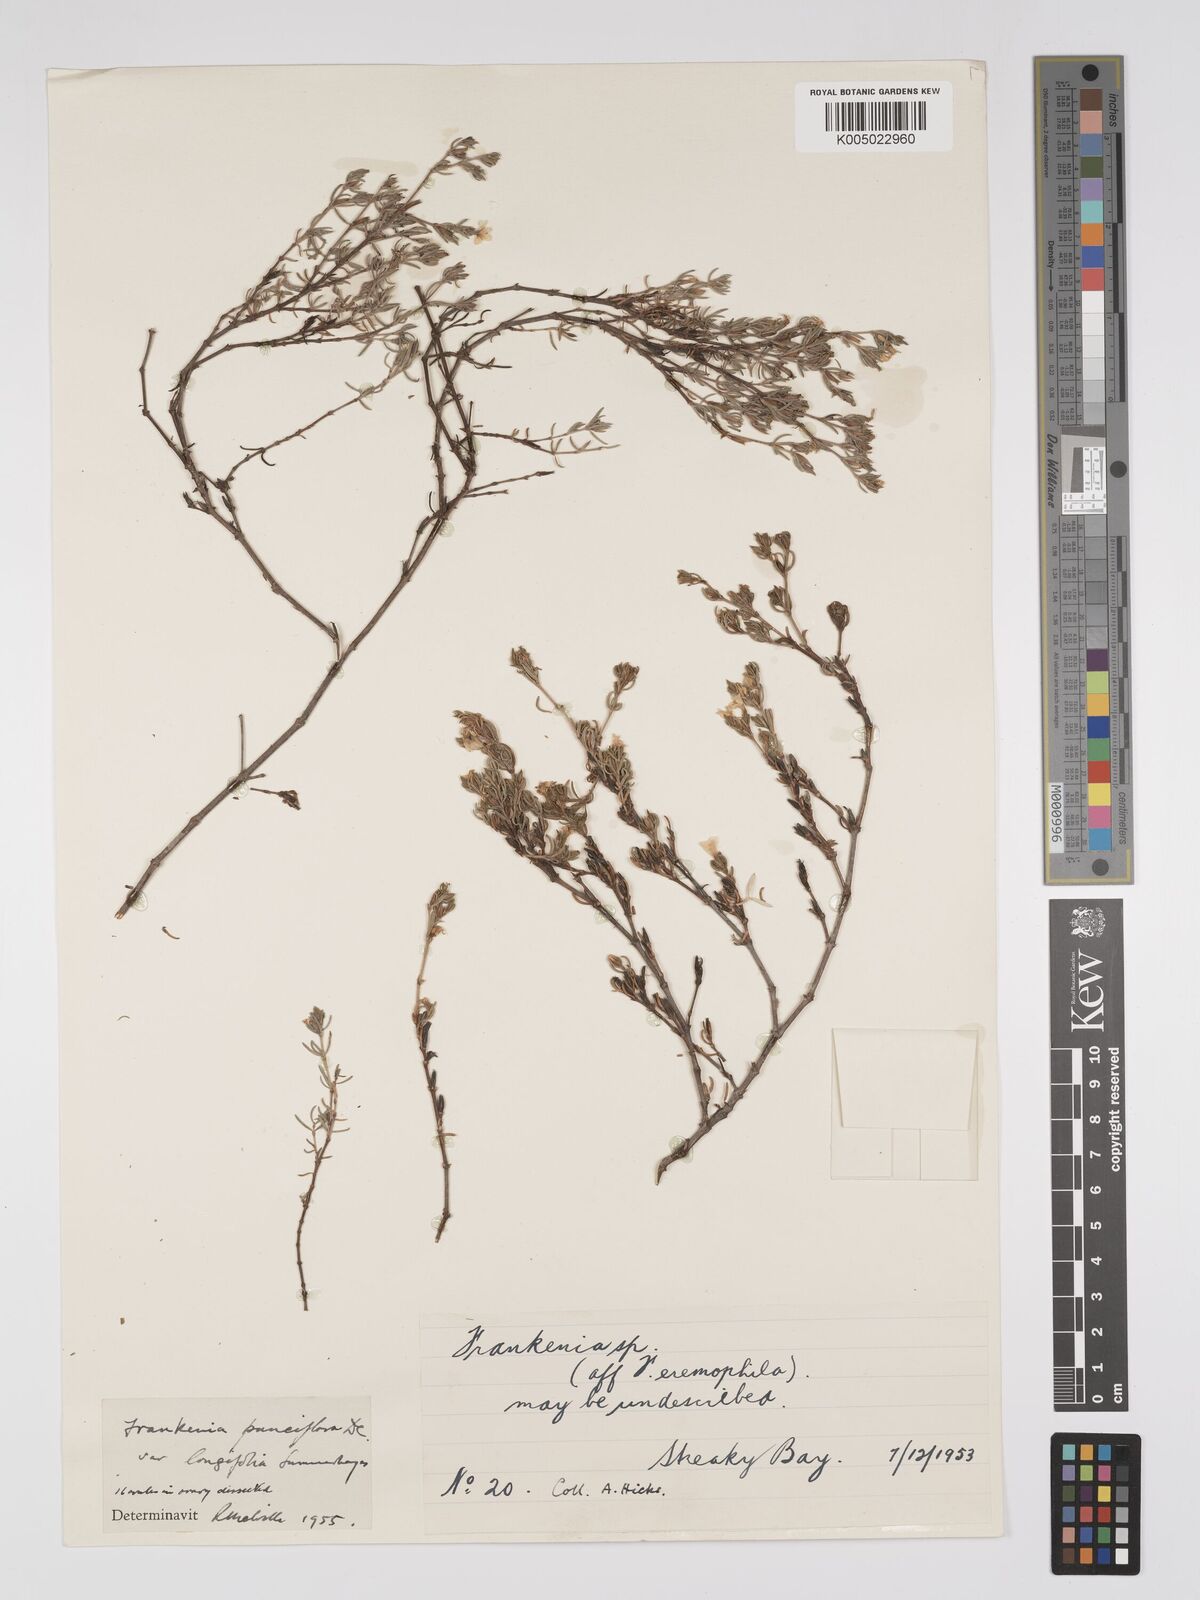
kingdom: Plantae
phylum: Tracheophyta
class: Magnoliopsida
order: Caryophyllales
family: Frankeniaceae
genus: Frankenia
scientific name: Frankenia pauciflora
